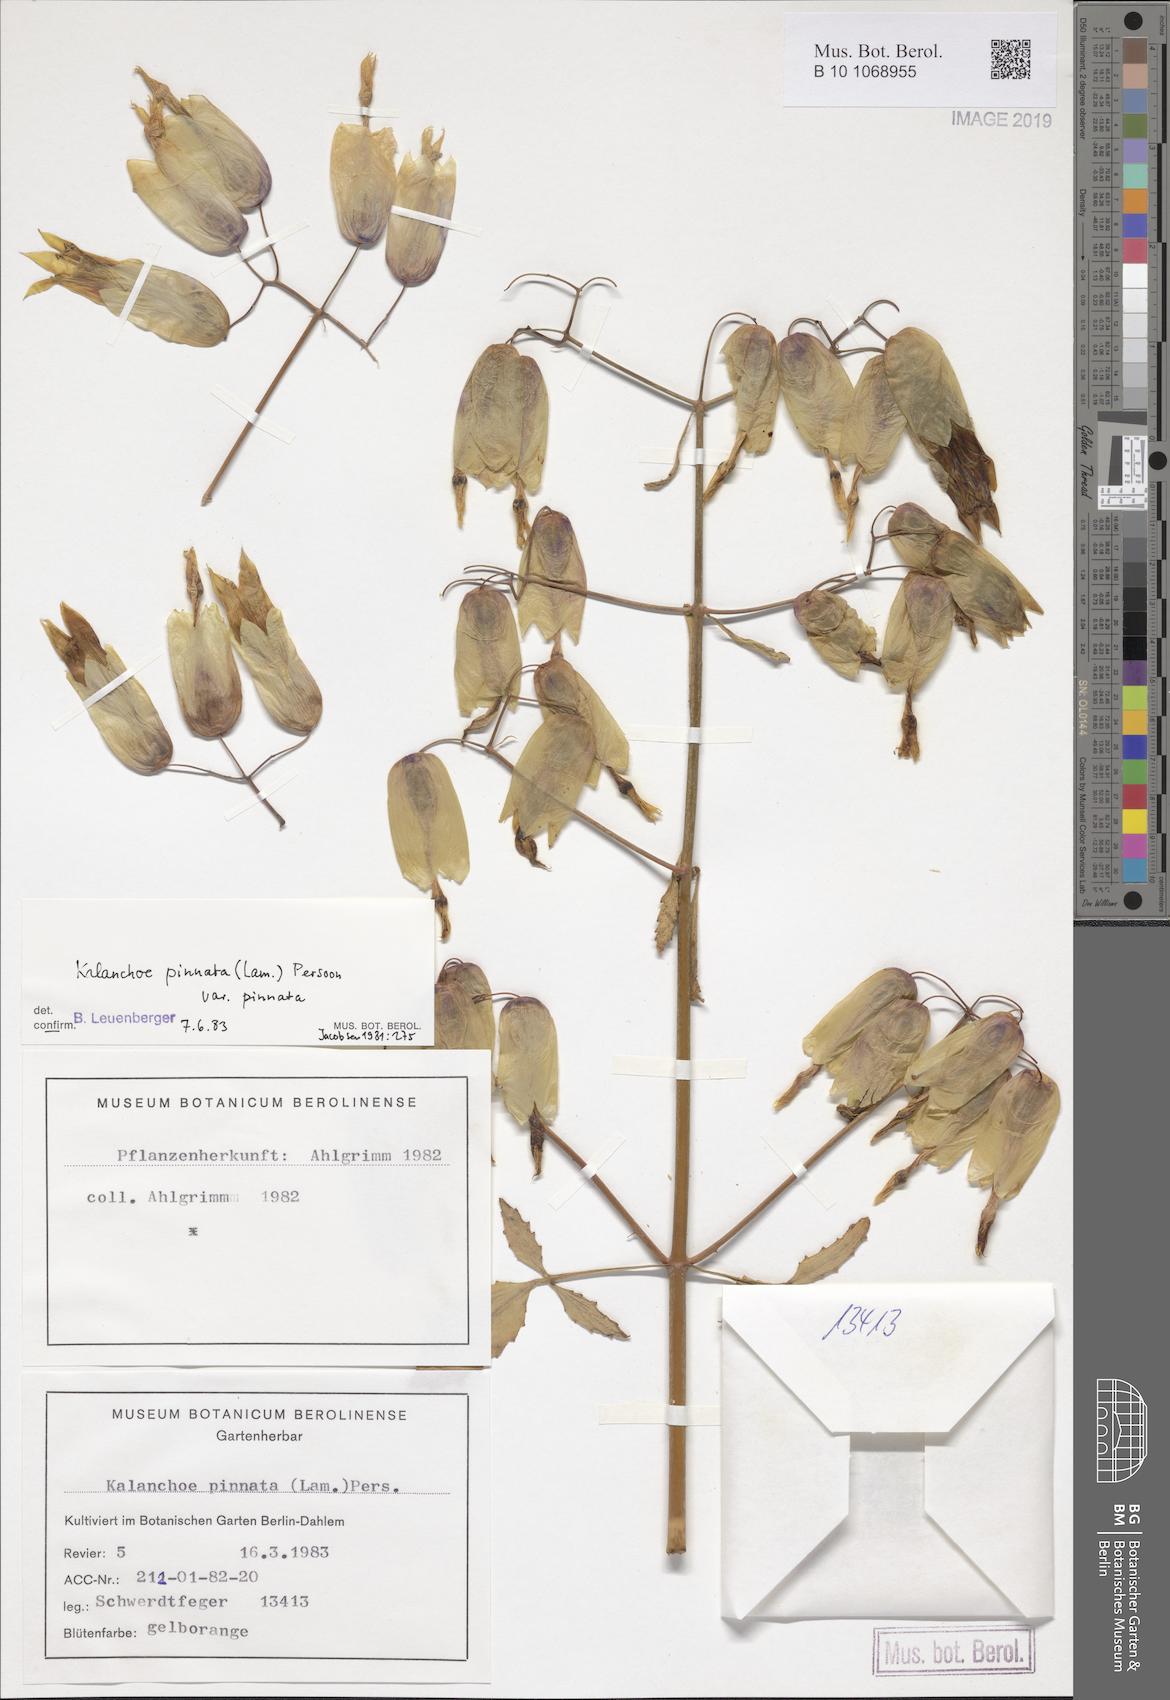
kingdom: Plantae
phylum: Tracheophyta
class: Magnoliopsida
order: Saxifragales
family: Crassulaceae
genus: Kalanchoe
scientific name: Kalanchoe pinnata
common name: Cathedral bells
